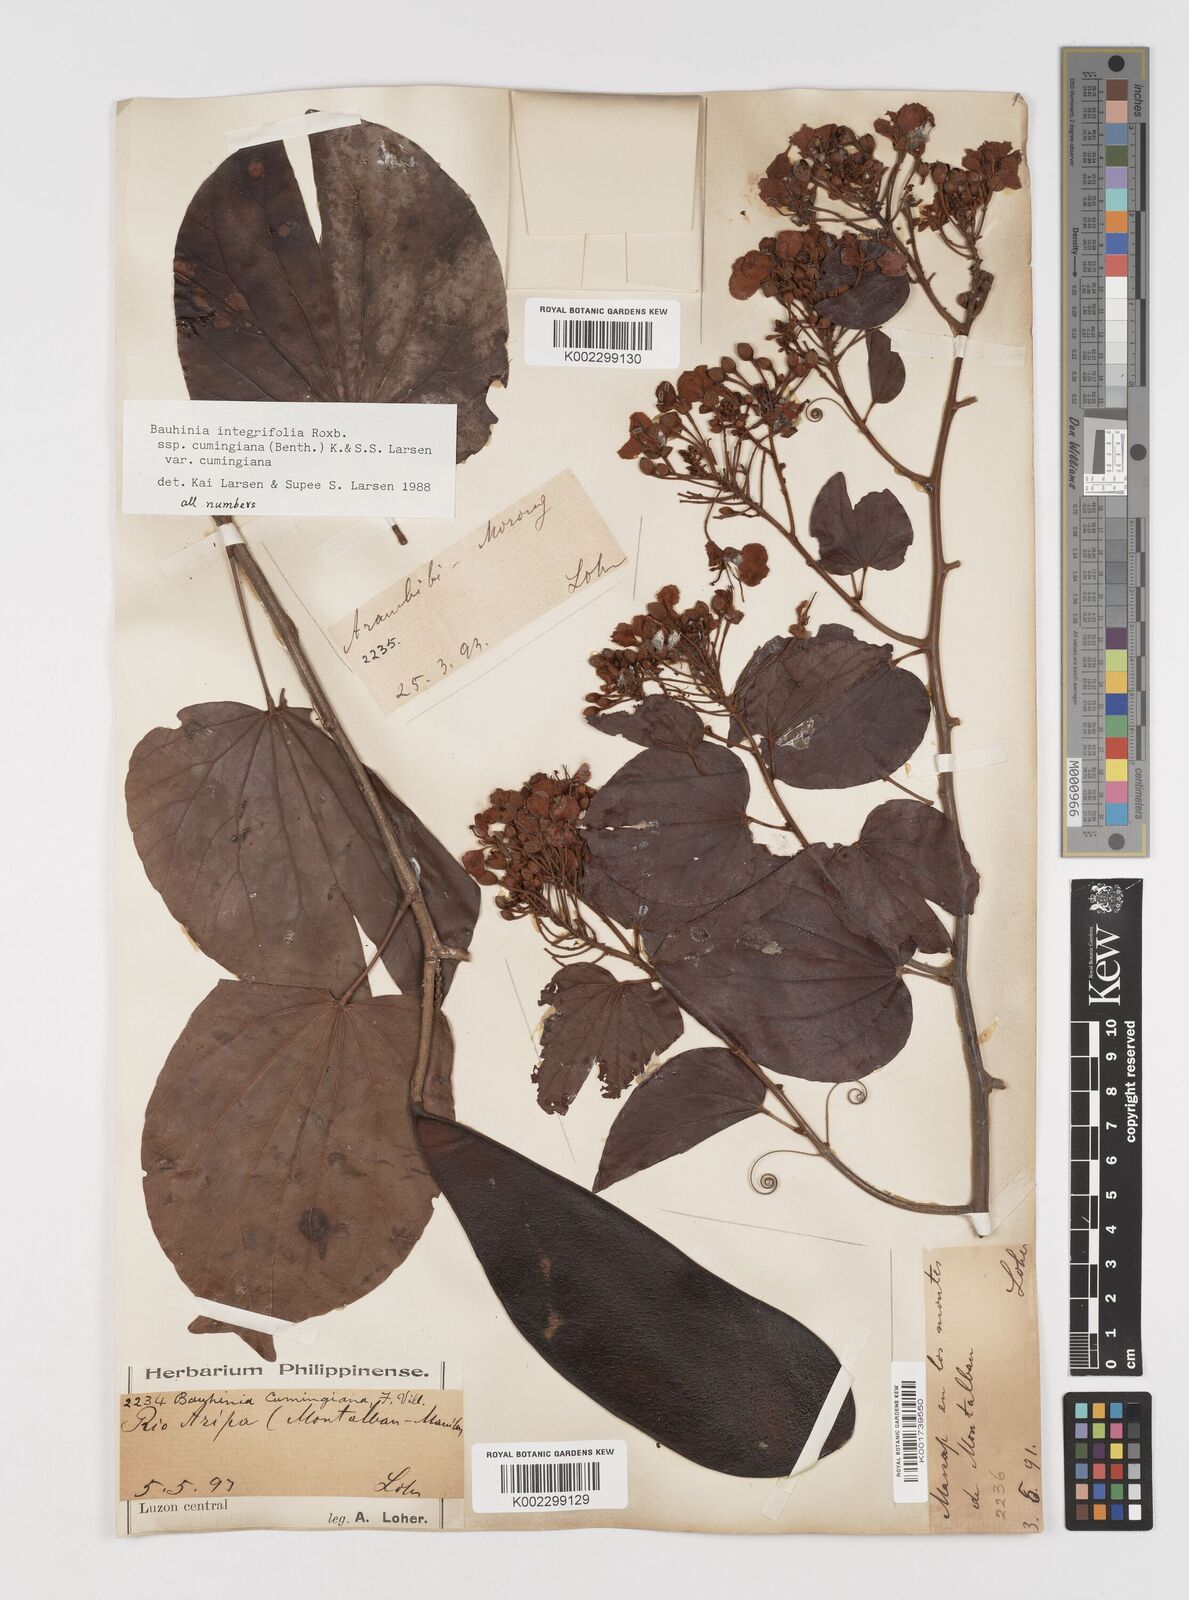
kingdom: Plantae
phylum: Tracheophyta
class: Magnoliopsida
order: Fabales
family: Fabaceae
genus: Phanera
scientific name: Phanera integrifolia
